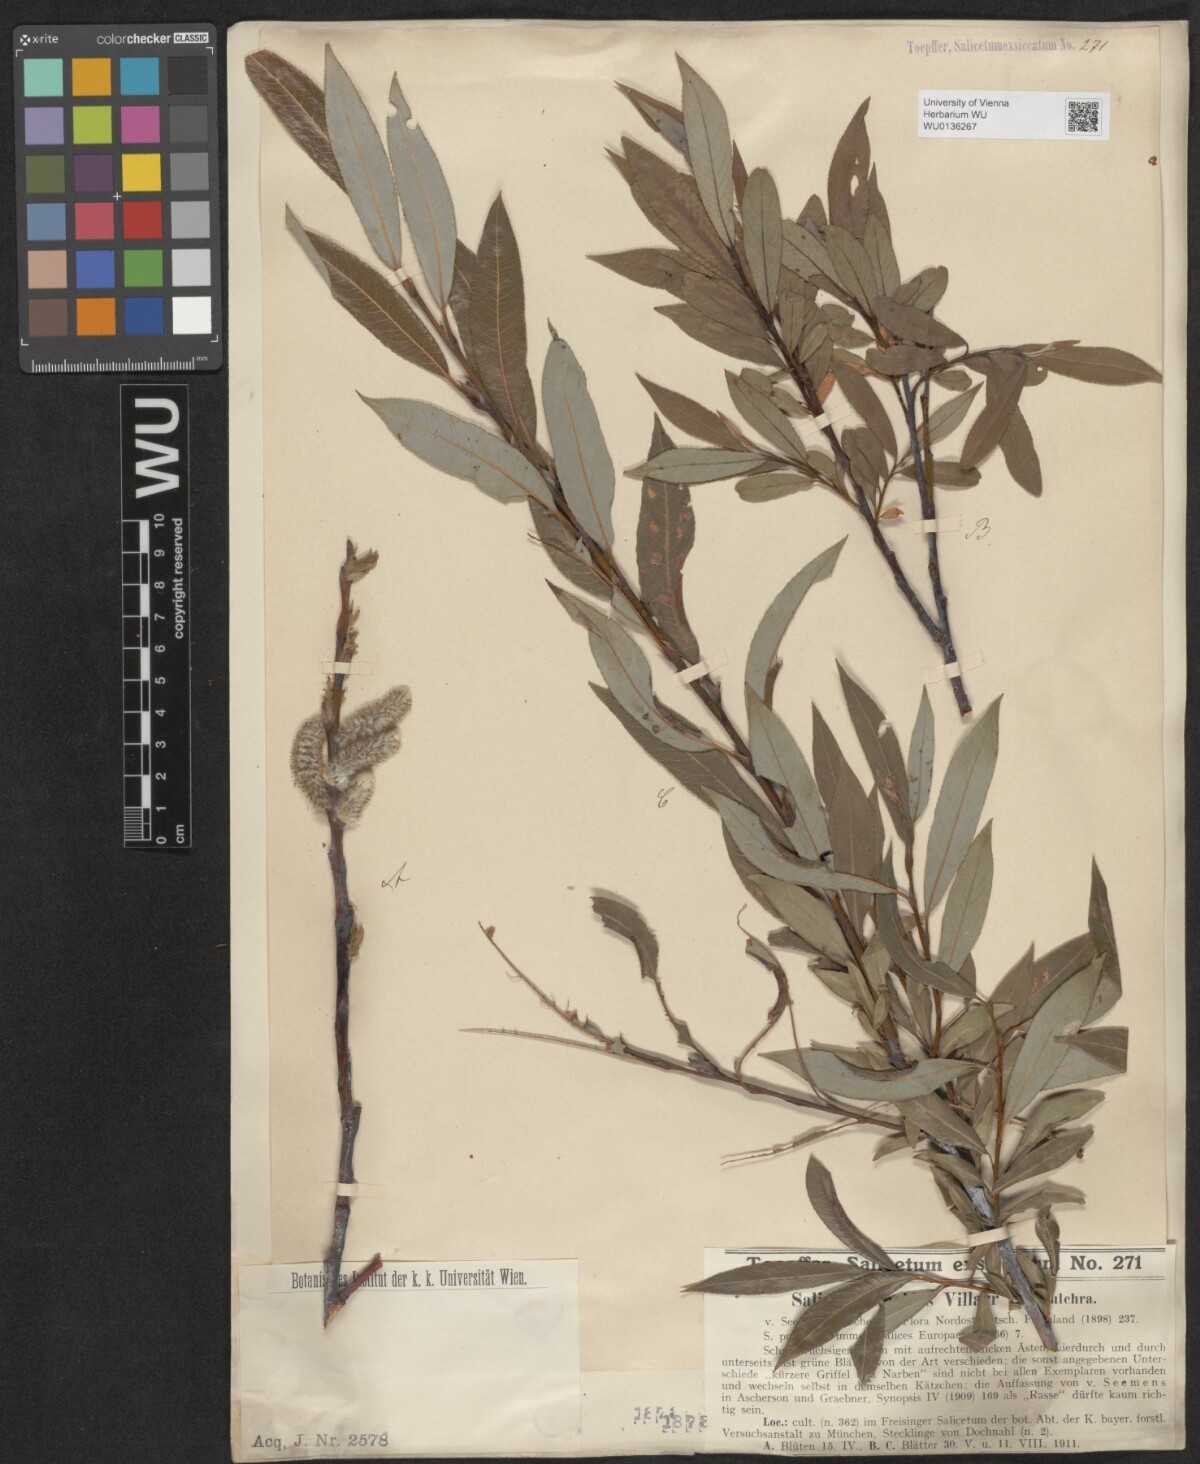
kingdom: Plantae
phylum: Tracheophyta
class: Magnoliopsida
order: Malpighiales
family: Salicaceae
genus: Salix
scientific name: Salix daphnoides
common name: European violet-willow
